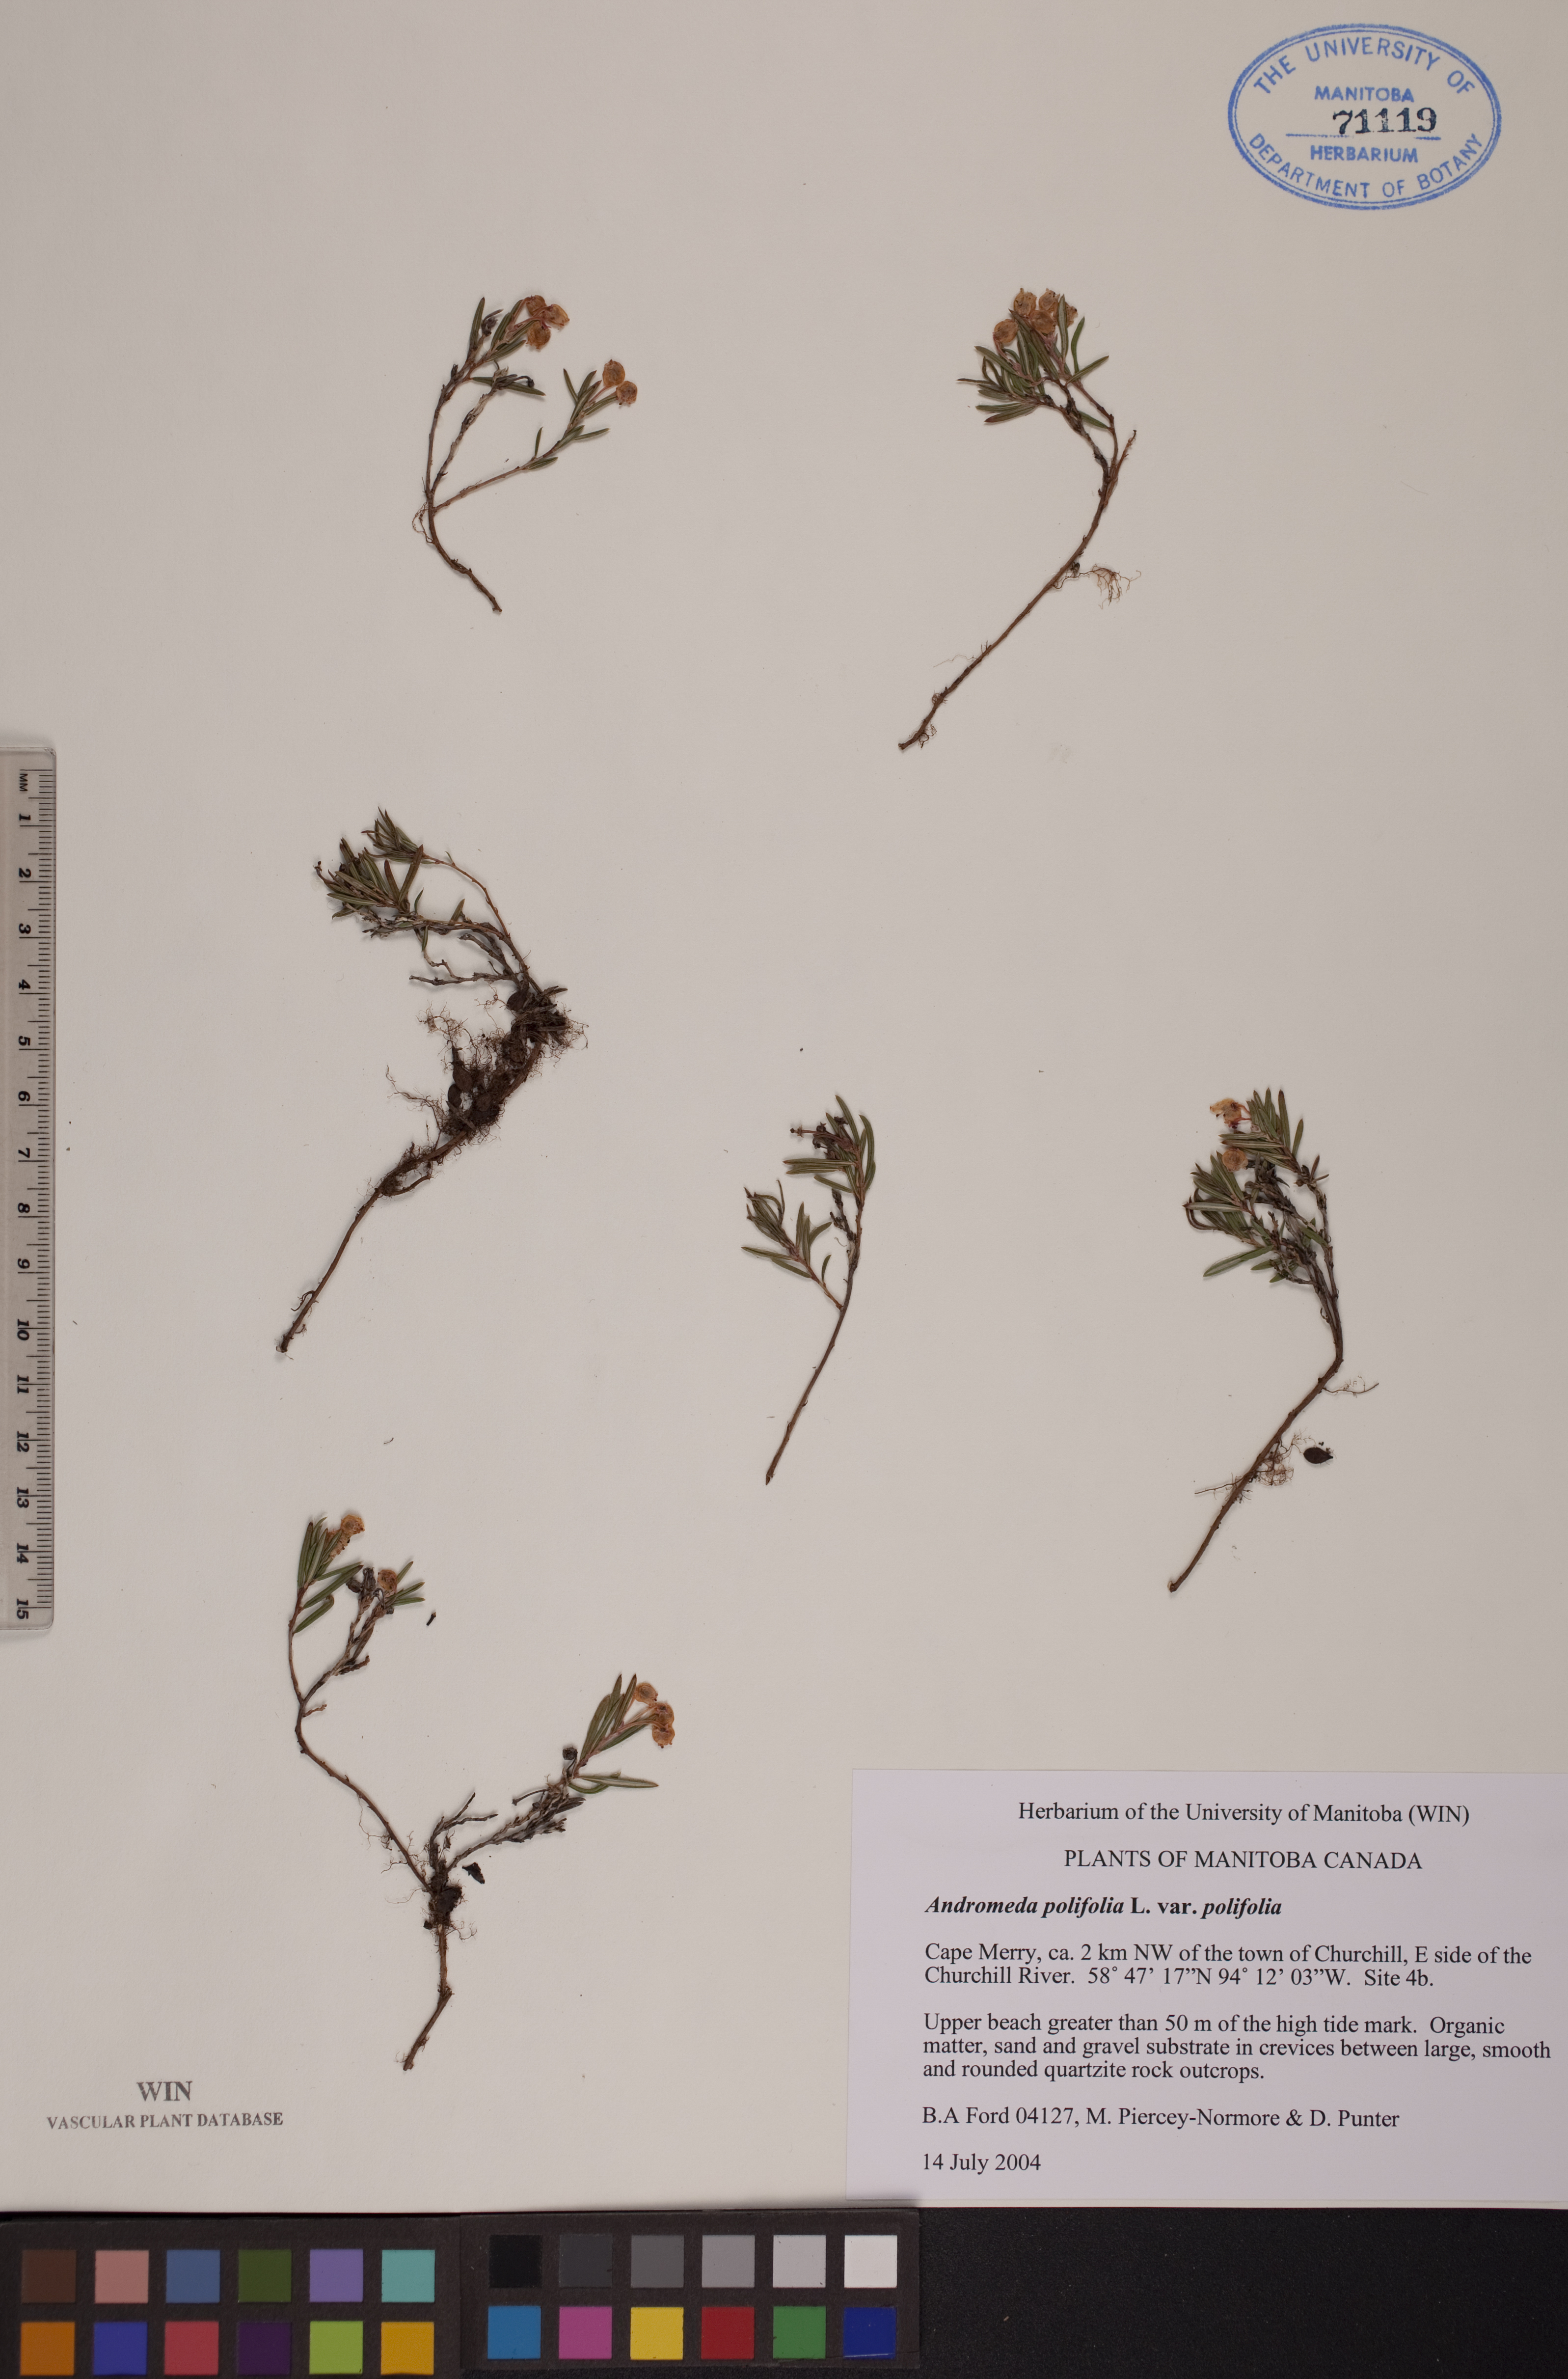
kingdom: Plantae
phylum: Tracheophyta
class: Magnoliopsida
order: Ericales
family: Ericaceae
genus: Andromeda
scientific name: Andromeda polifolia
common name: Bog-rosemary
